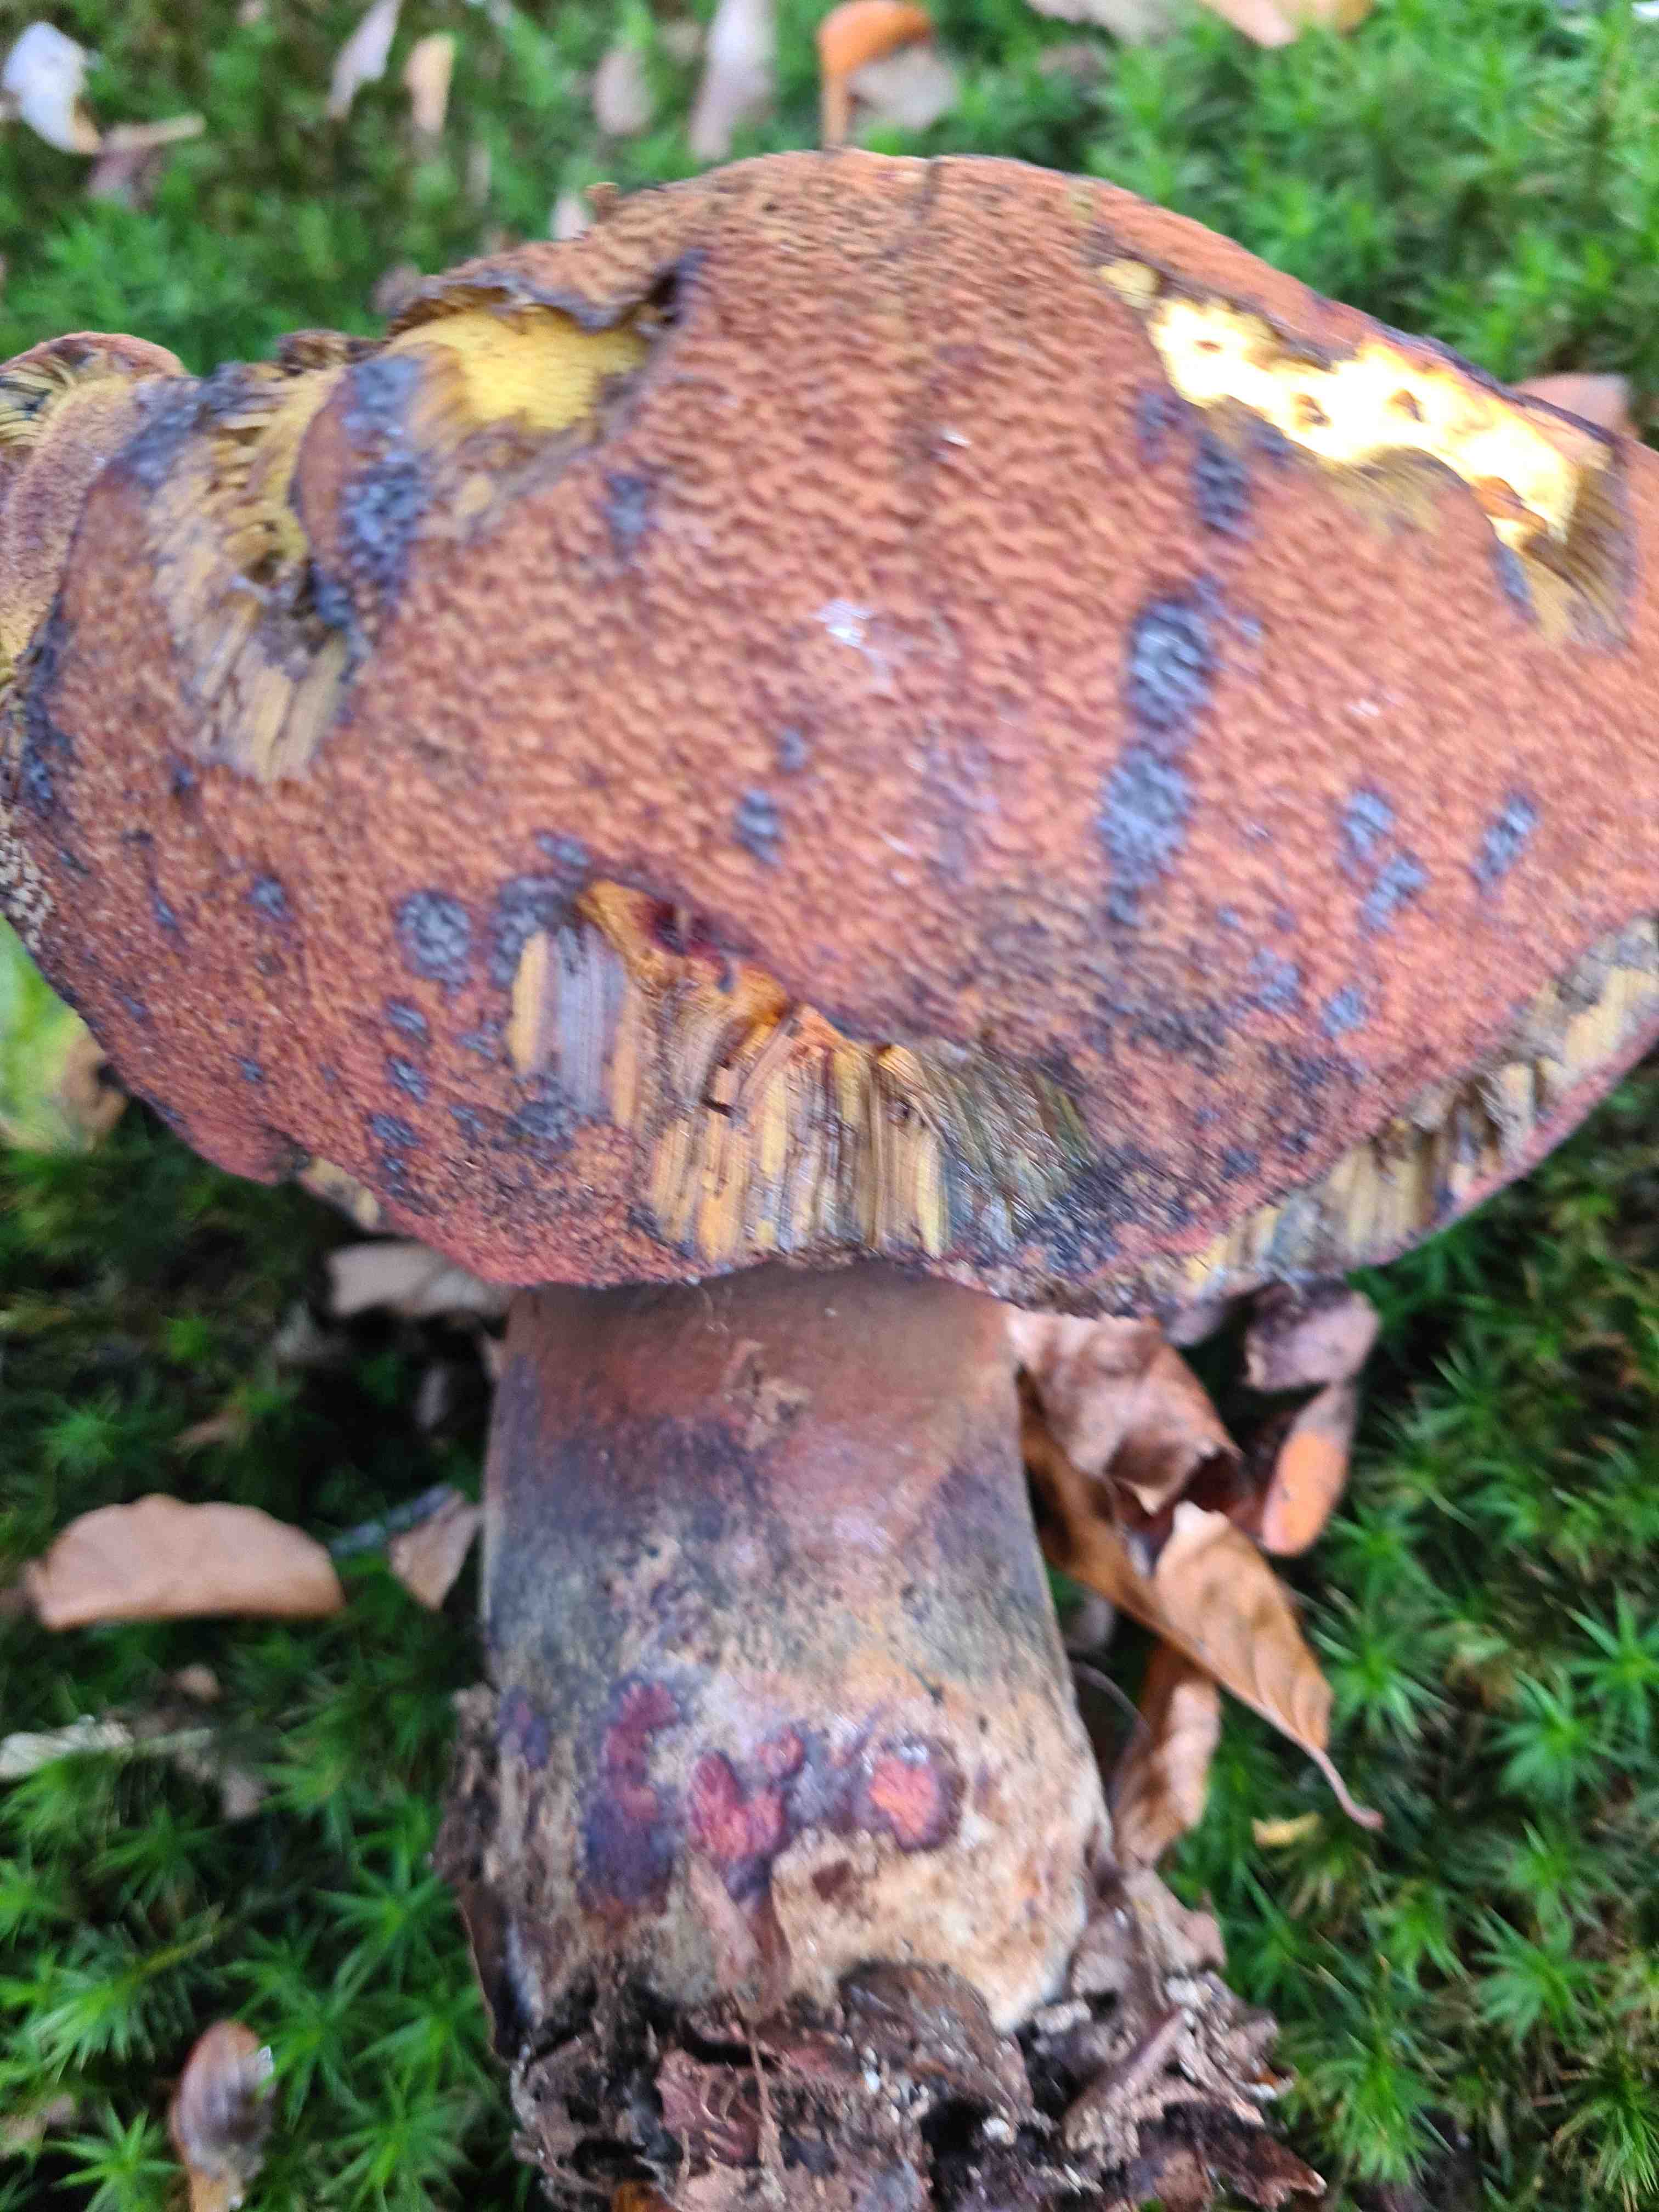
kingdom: Fungi
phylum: Basidiomycota
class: Agaricomycetes
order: Boletales
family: Boletaceae
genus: Neoboletus
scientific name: Neoboletus erythropus
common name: punktstokket indigorørhat
